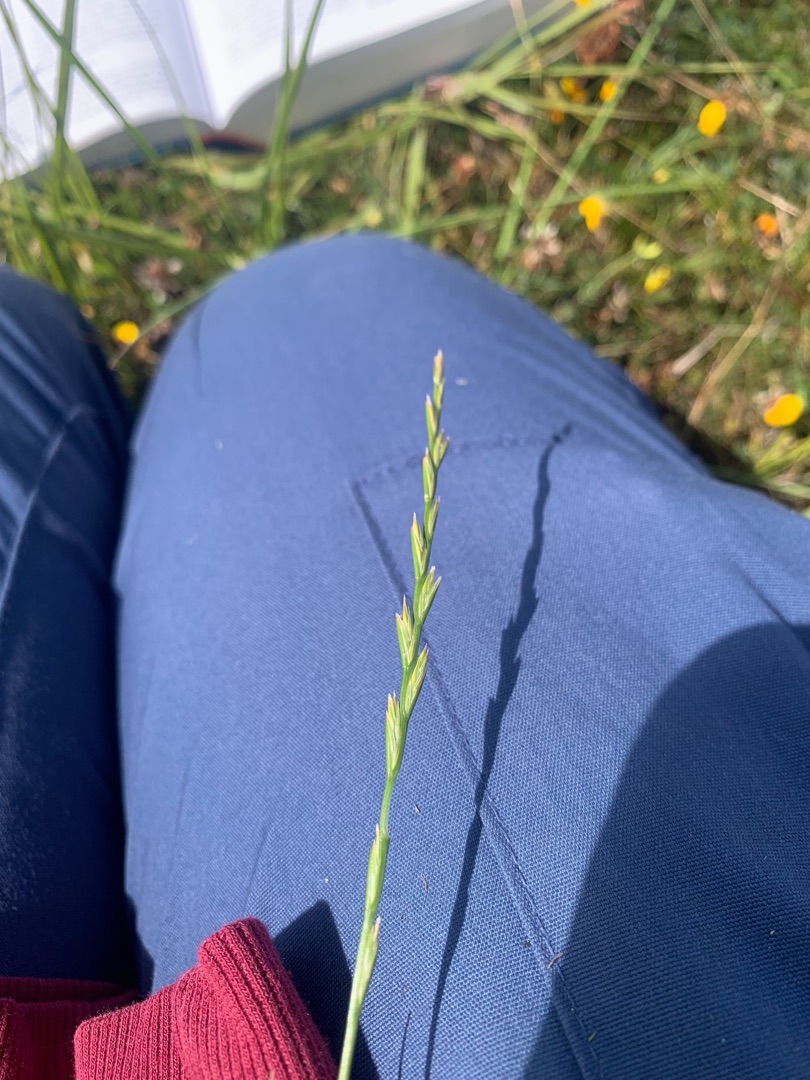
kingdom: Plantae
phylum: Tracheophyta
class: Liliopsida
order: Poales
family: Poaceae
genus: Lolium
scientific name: Lolium perenne
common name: Almindelig rajgræs
